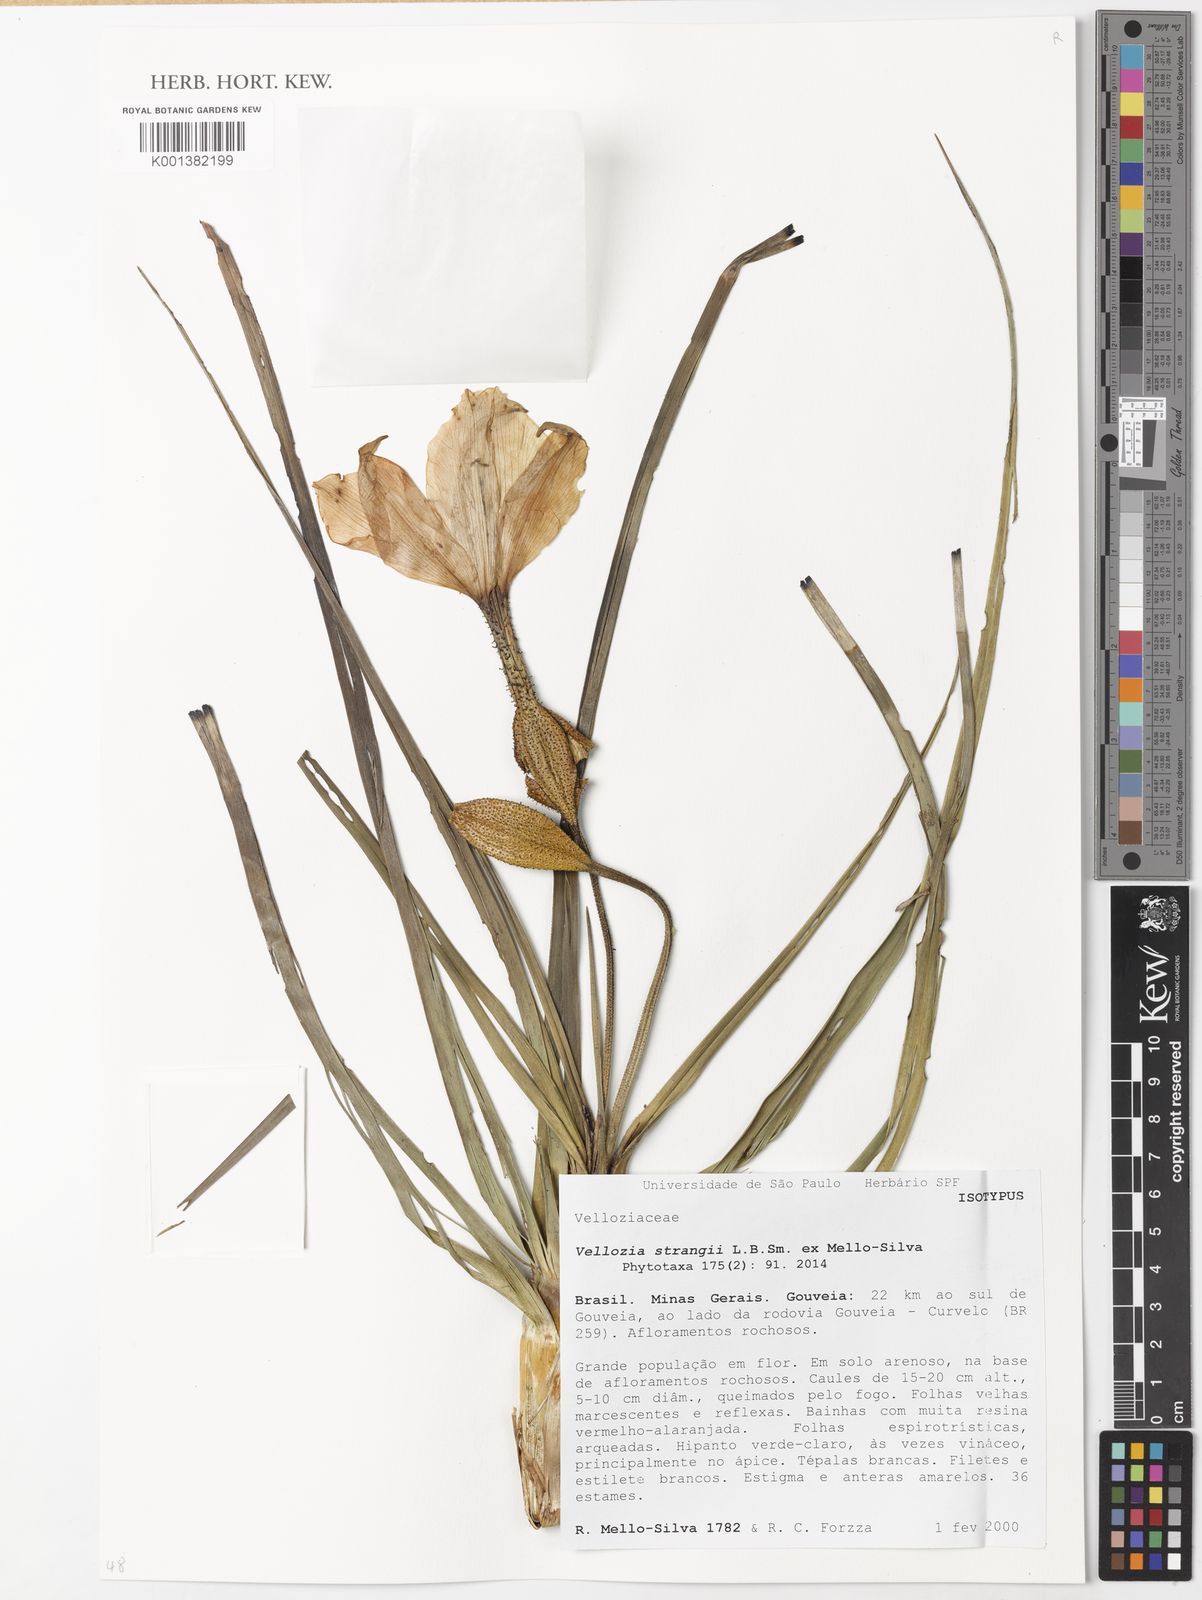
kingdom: Plantae
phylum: Tracheophyta
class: Liliopsida
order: Pandanales
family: Velloziaceae
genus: Vellozia
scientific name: Vellozia strangii
